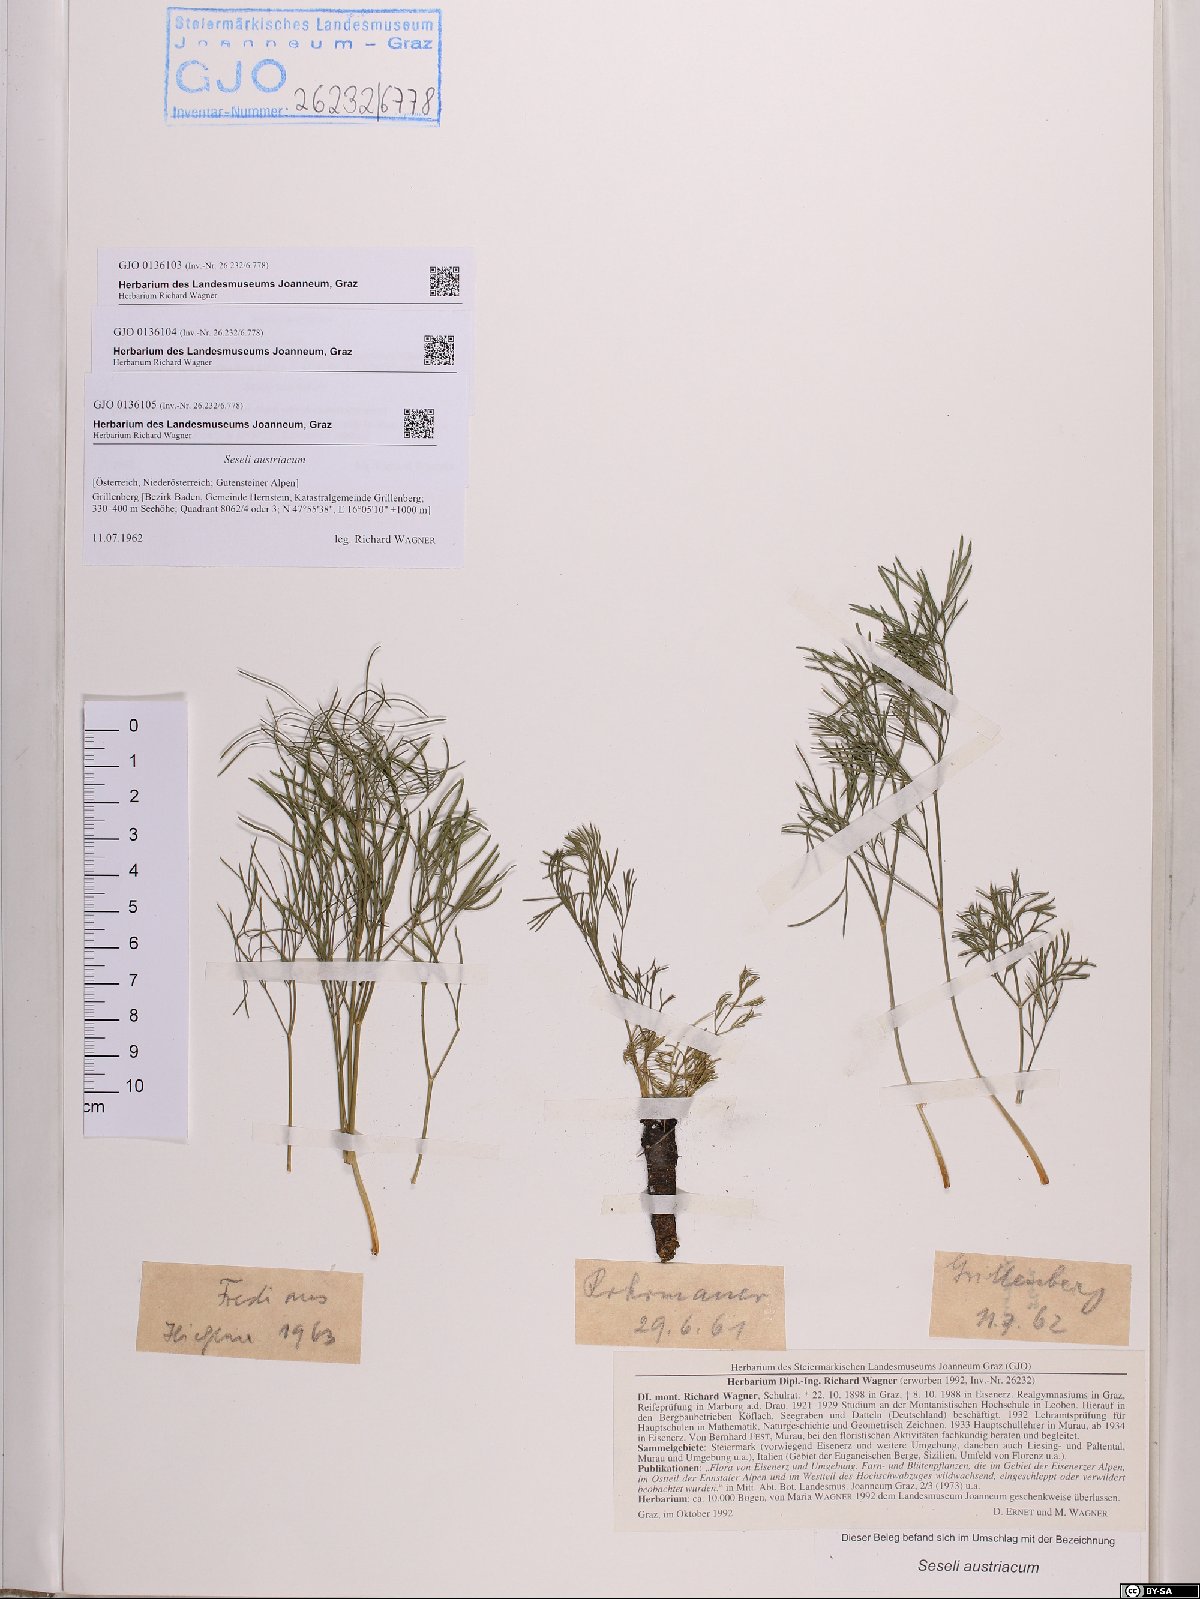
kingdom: Plantae
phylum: Tracheophyta
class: Magnoliopsida
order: Apiales
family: Apiaceae
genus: Seseli
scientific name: Seseli austriacum
